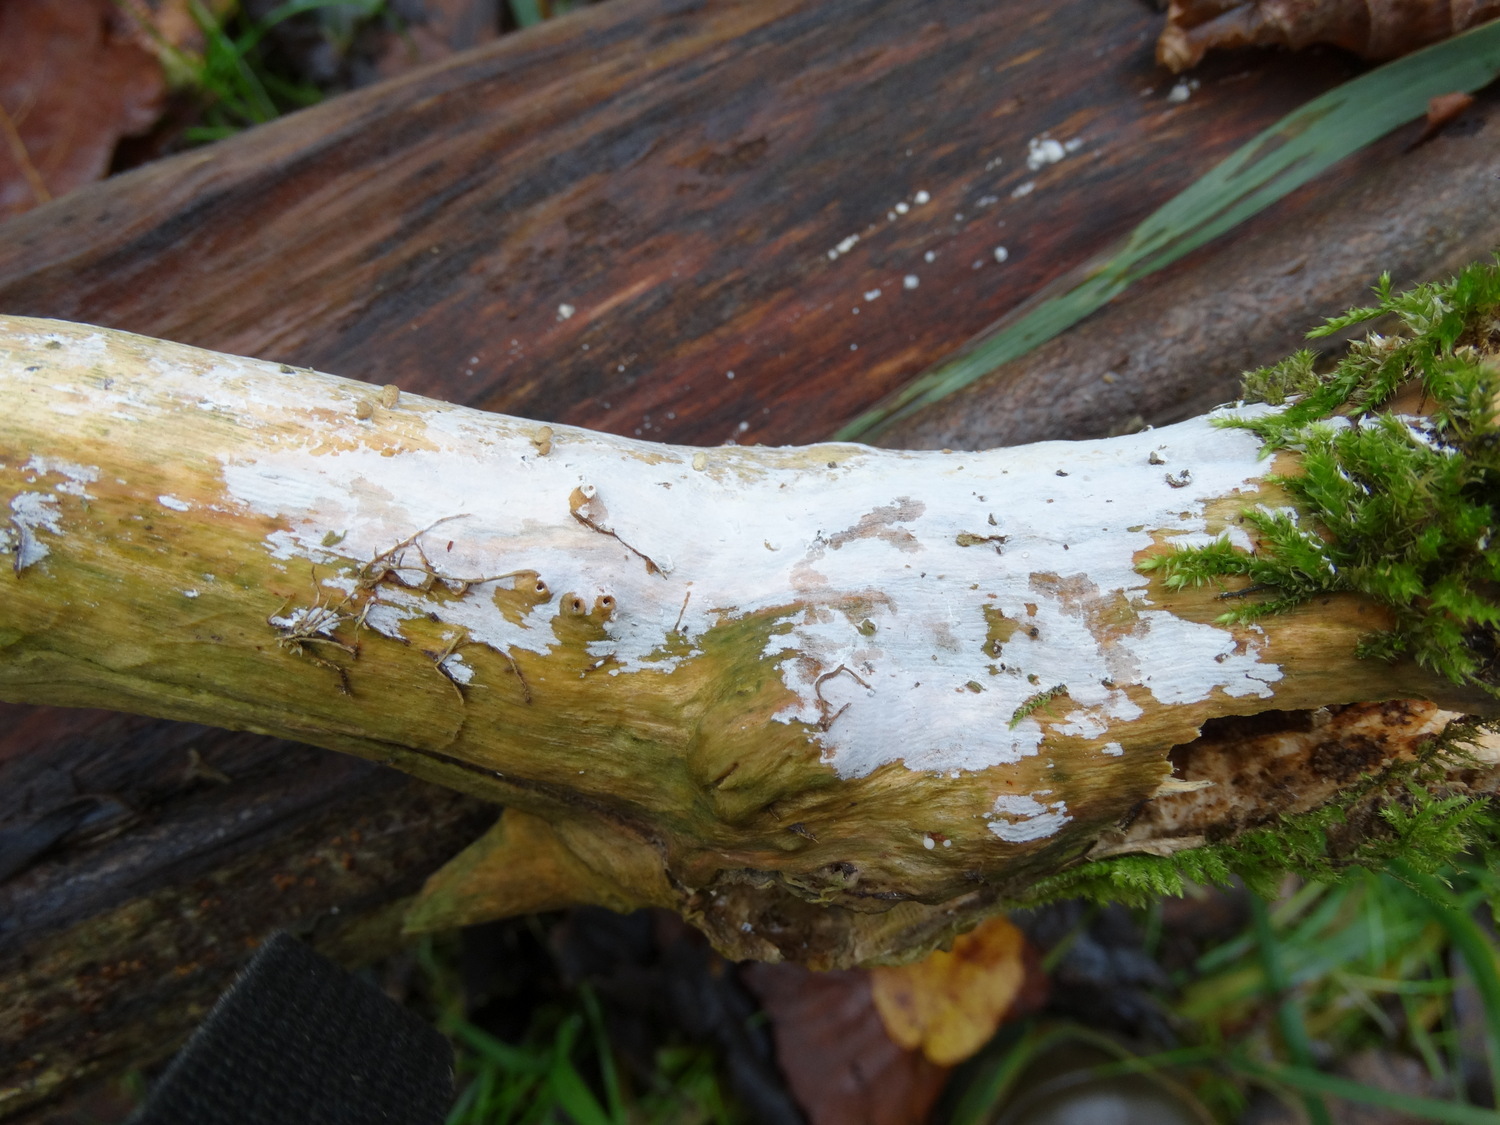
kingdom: Fungi
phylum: Basidiomycota
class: Agaricomycetes
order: Corticiales
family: Corticiaceae
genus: Lyomyces
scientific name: Lyomyces sambuci
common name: almindelig hyldehinde
